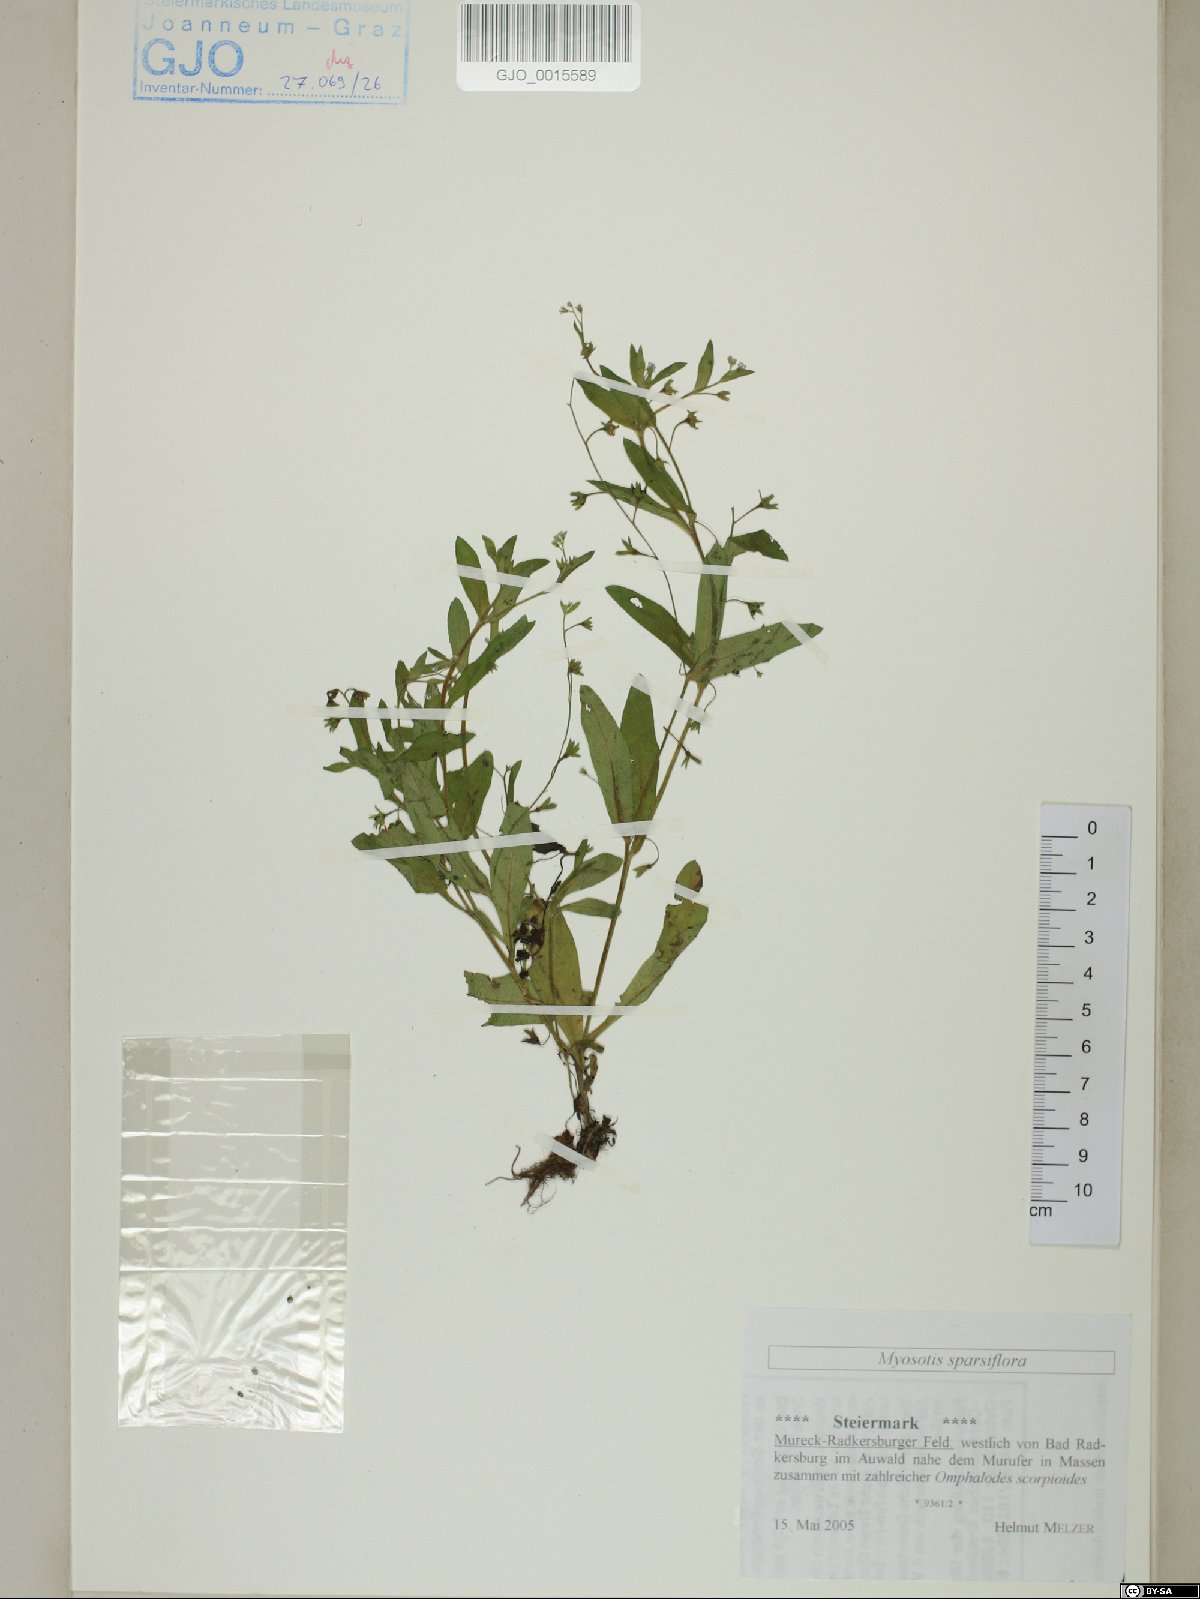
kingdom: Plantae
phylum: Tracheophyta
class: Magnoliopsida
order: Boraginales
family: Boraginaceae
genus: Myosotis
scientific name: Myosotis sparsiflora
